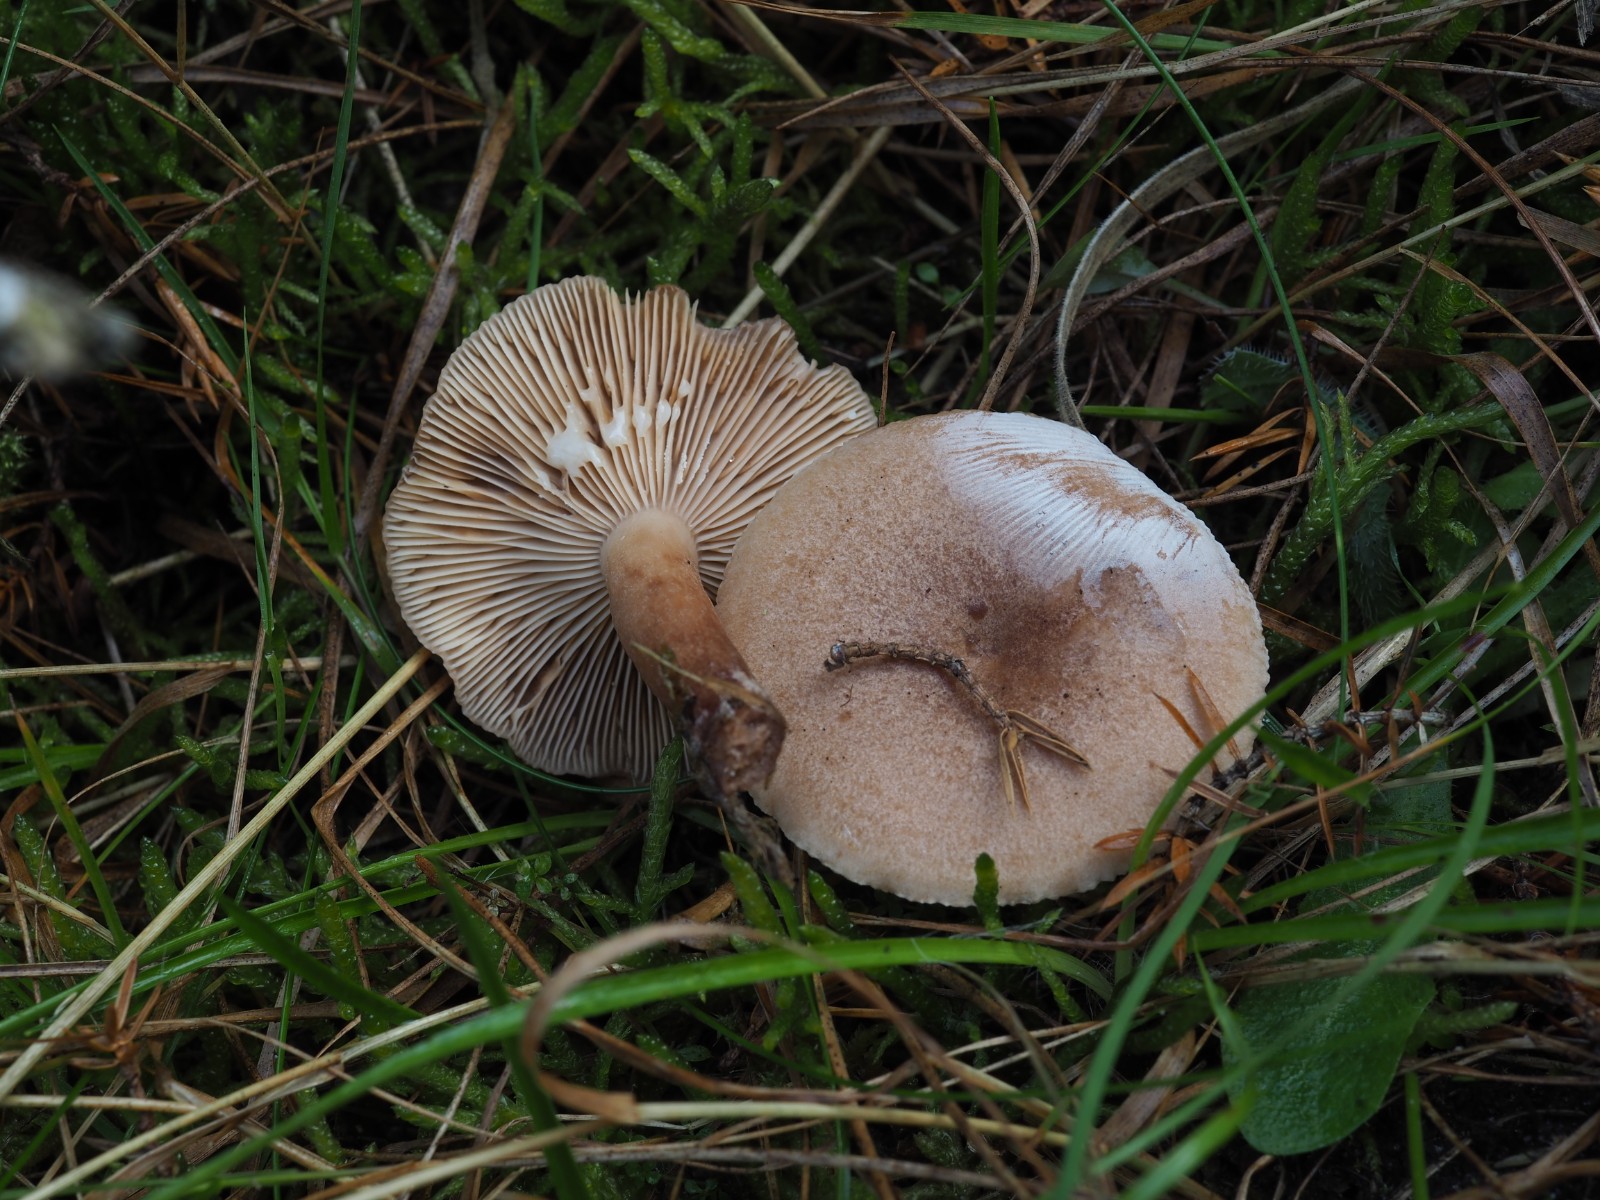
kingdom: Fungi
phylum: Basidiomycota
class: Agaricomycetes
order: Russulales
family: Russulaceae
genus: Lactarius
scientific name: Lactarius quietus
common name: ege-mælkehat
